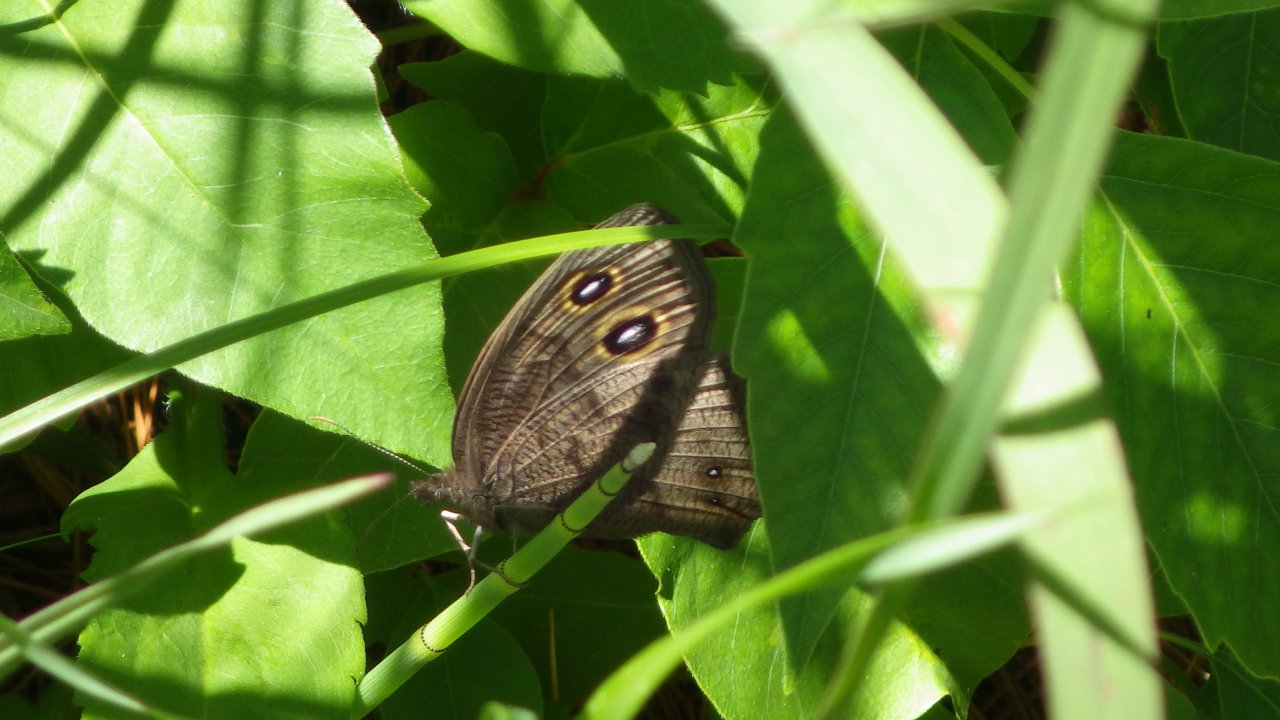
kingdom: Animalia
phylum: Arthropoda
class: Insecta
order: Lepidoptera
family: Nymphalidae
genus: Cercyonis
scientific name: Cercyonis pegala
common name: Common Wood-Nymph
